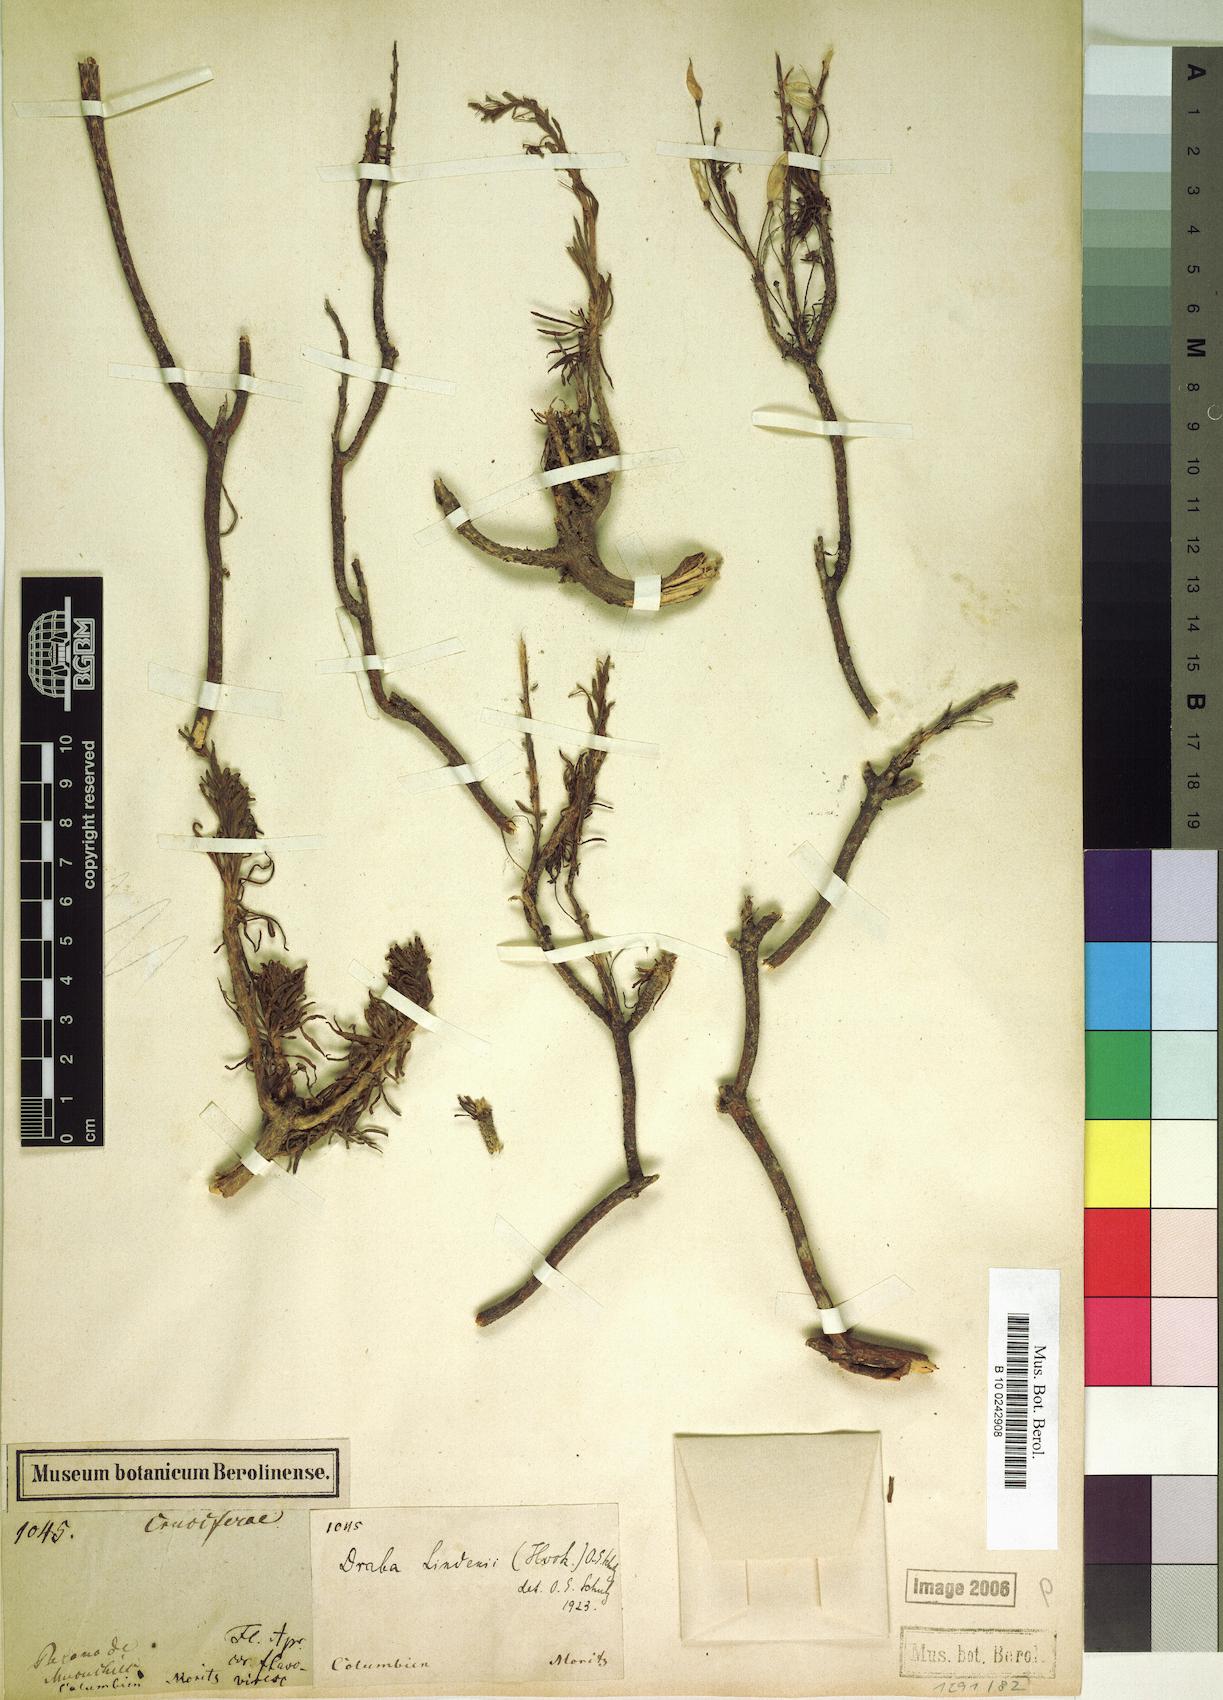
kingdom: Plantae
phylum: Tracheophyta
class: Magnoliopsida
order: Brassicales
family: Brassicaceae
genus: Draba
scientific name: Draba lindenii
